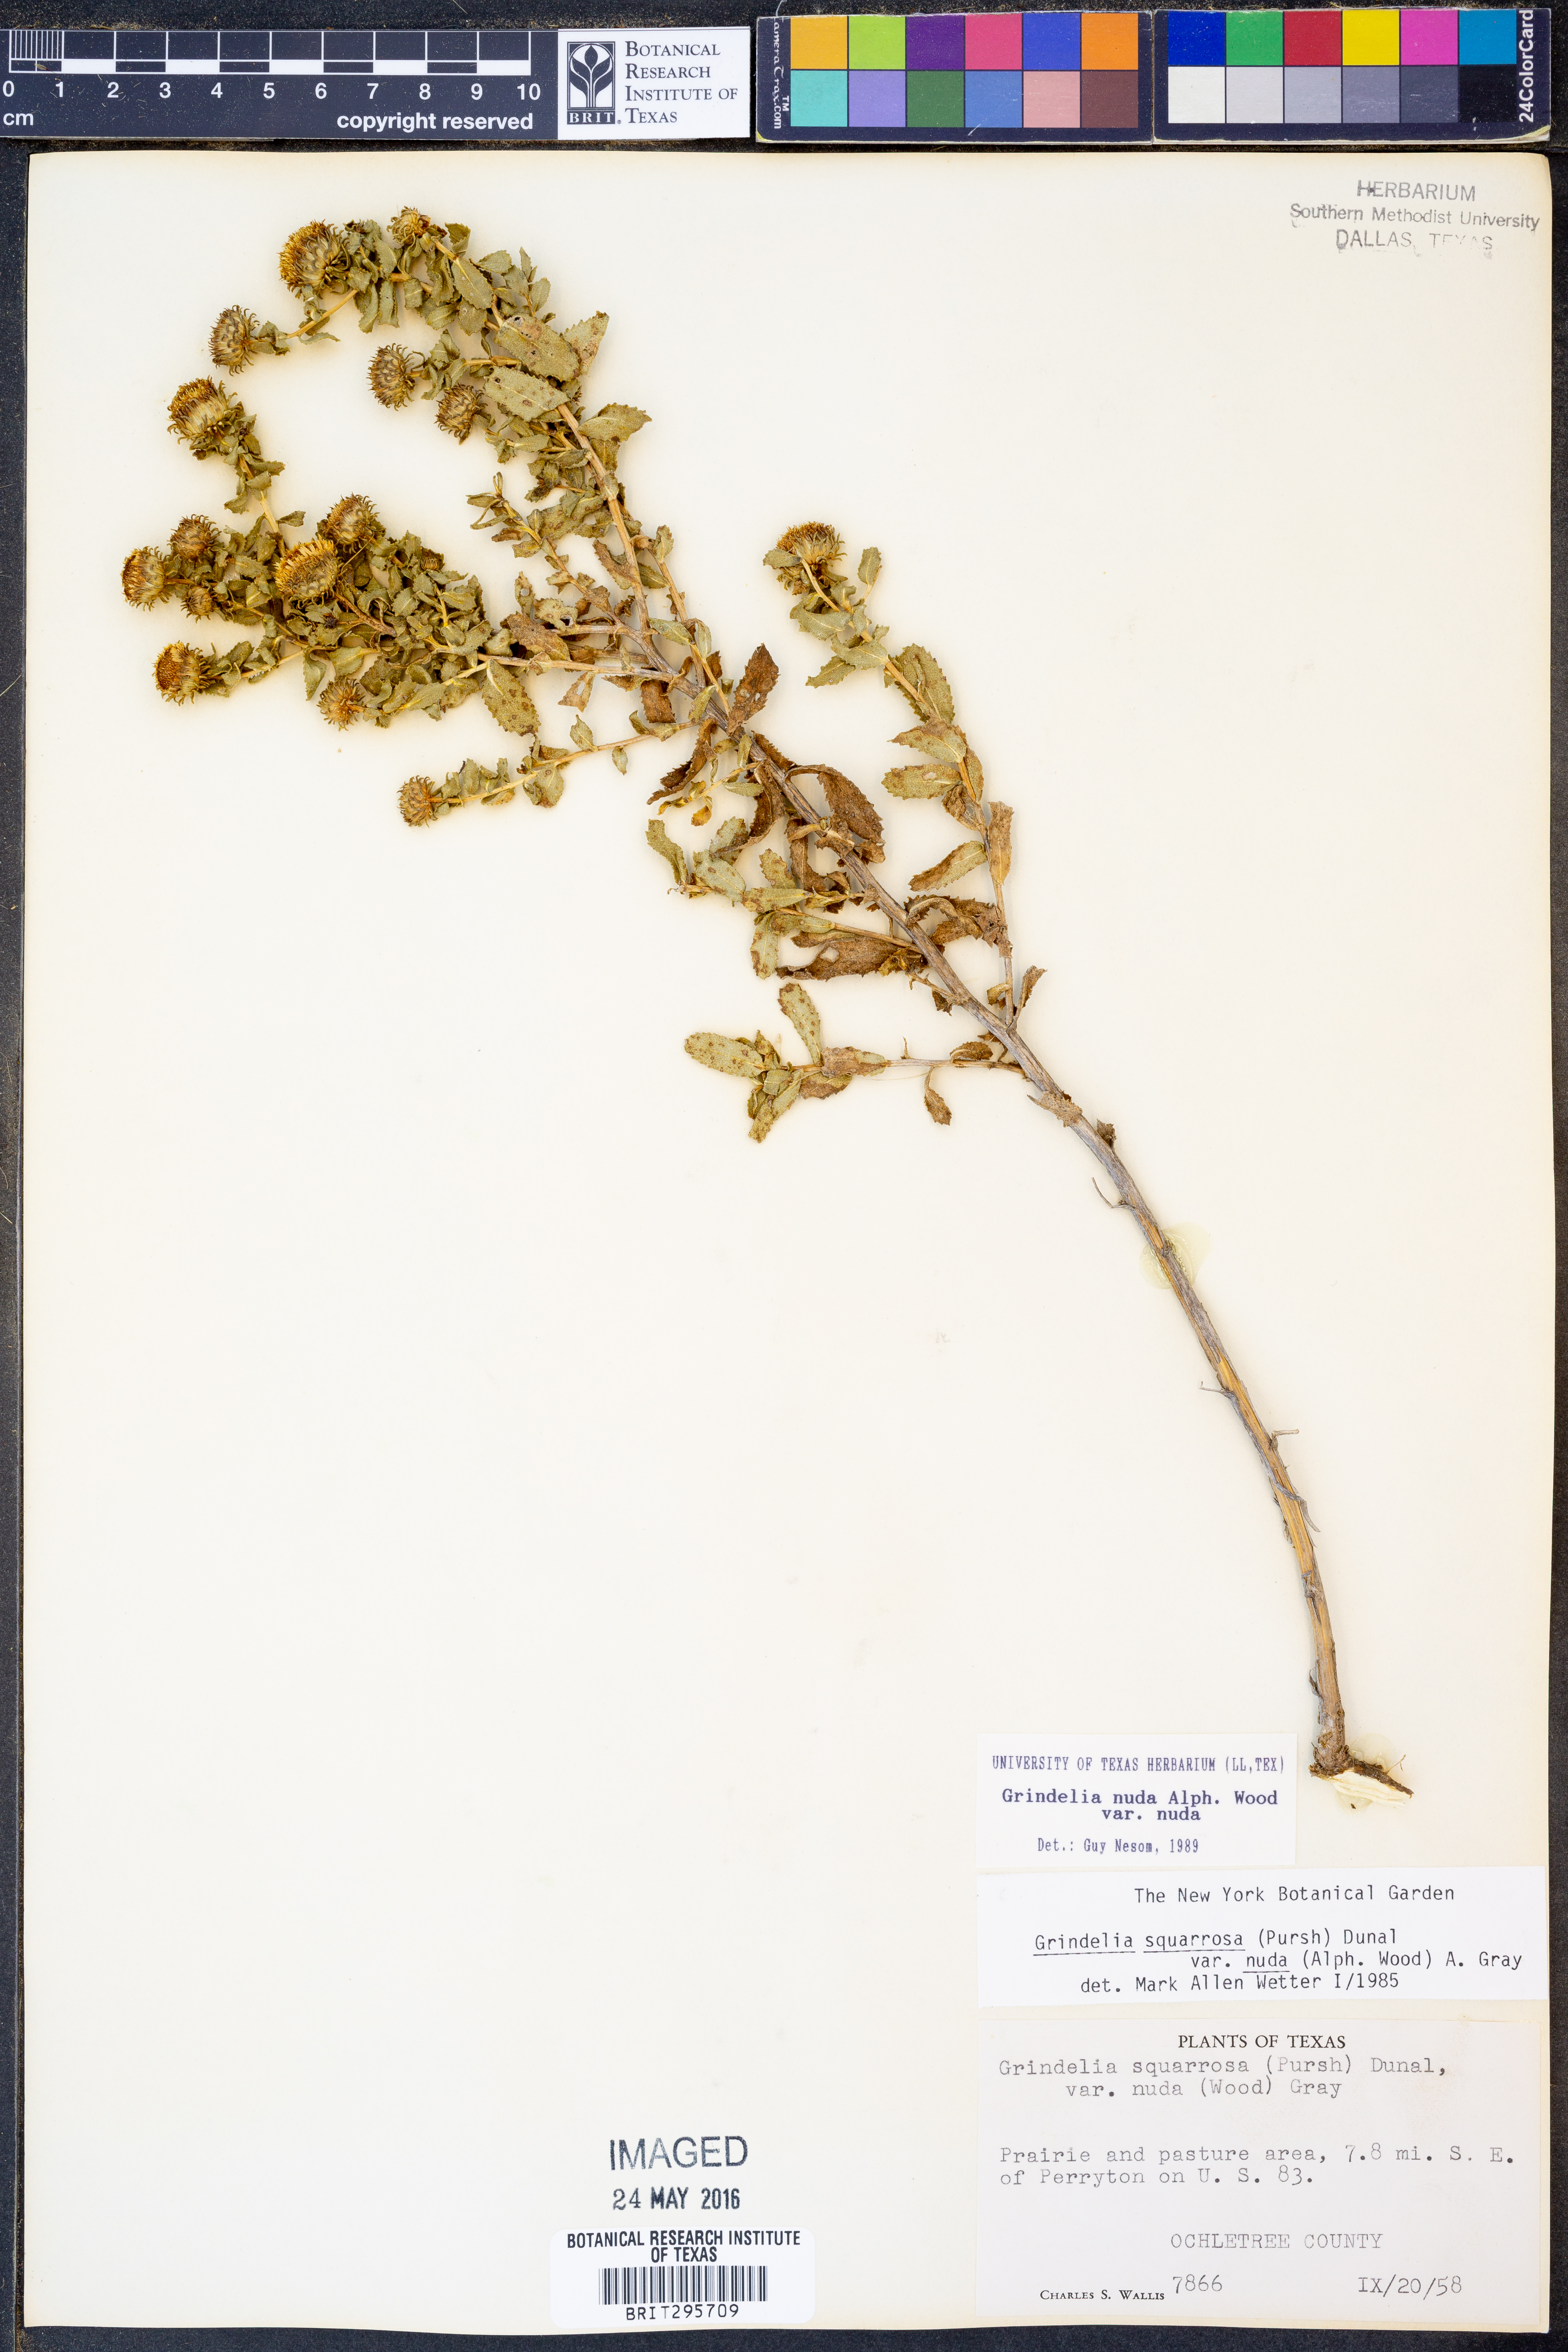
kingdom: Plantae
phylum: Tracheophyta
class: Magnoliopsida
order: Asterales
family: Asteraceae
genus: Grindelia
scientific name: Grindelia nuda
